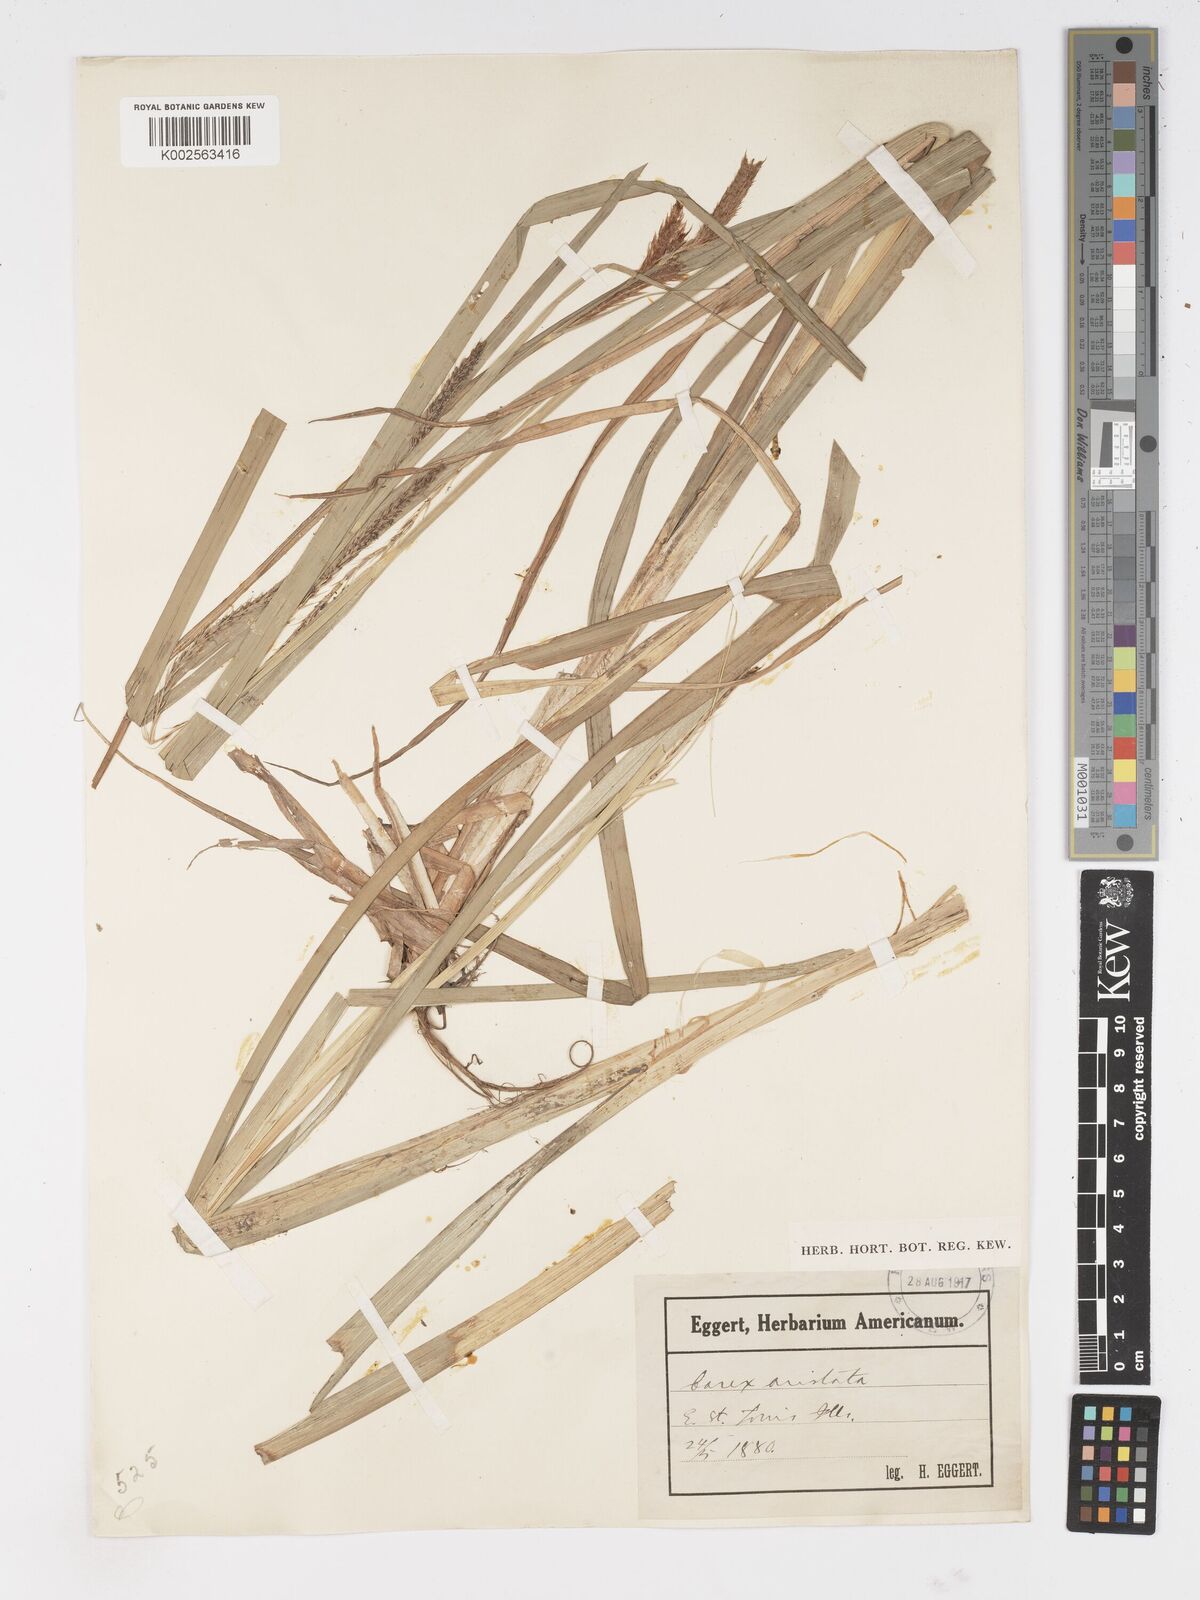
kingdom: Plantae
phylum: Tracheophyta
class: Liliopsida
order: Poales
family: Cyperaceae
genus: Carex
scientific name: Carex atherodes
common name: Wheat sedge
